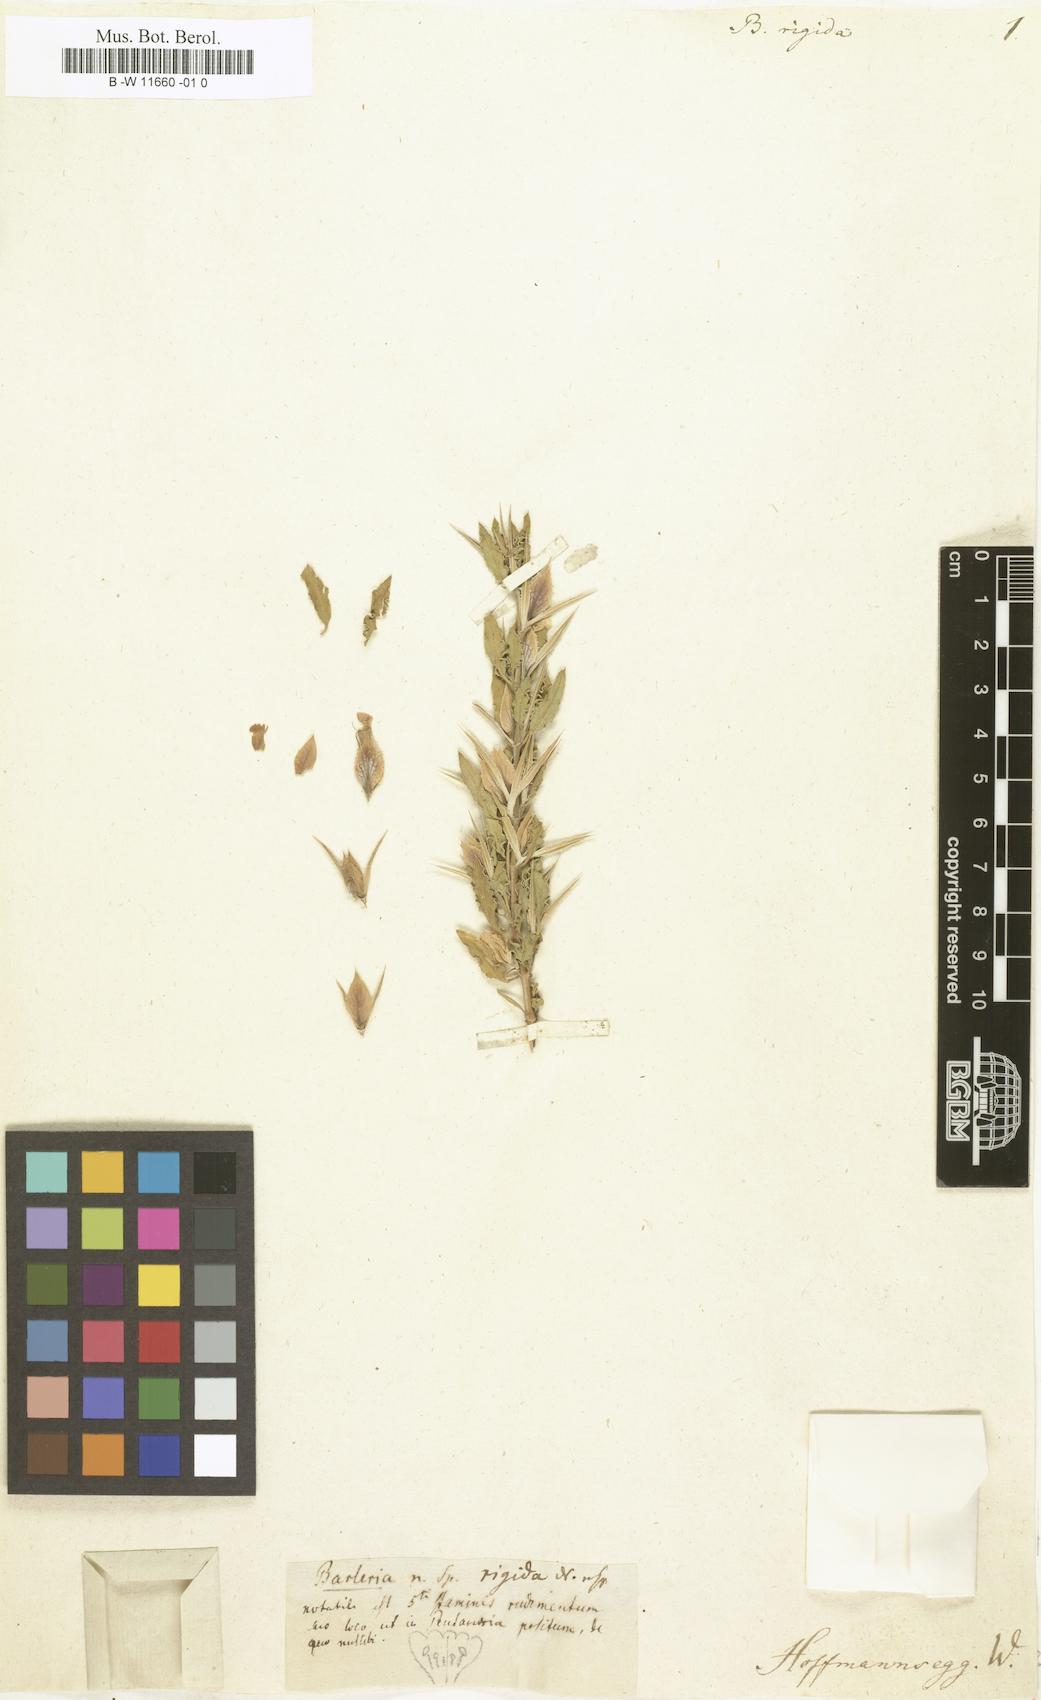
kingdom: Plantae
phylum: Tracheophyta
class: Magnoliopsida
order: Lamiales
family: Acanthaceae
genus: Barleria
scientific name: Barleria rigida
